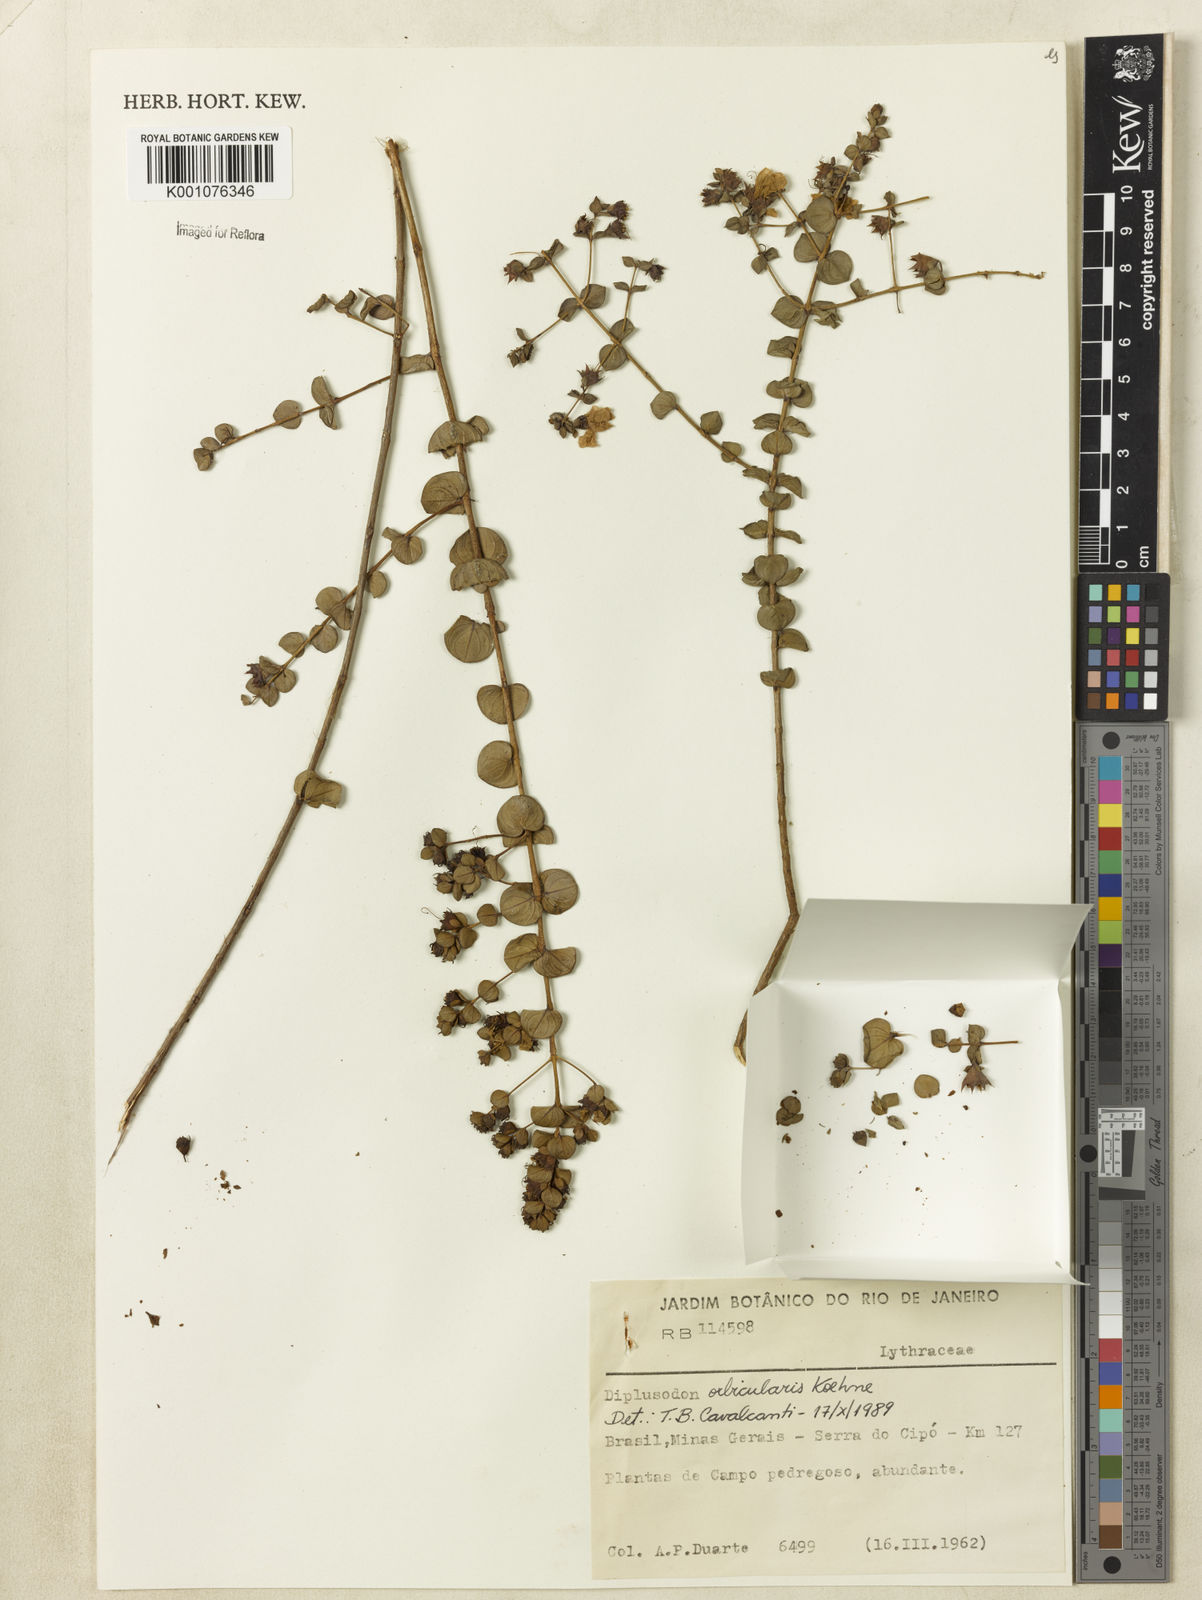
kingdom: Plantae
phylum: Tracheophyta
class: Magnoliopsida
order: Myrtales
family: Lythraceae
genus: Diplusodon
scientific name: Diplusodon orbicularis
